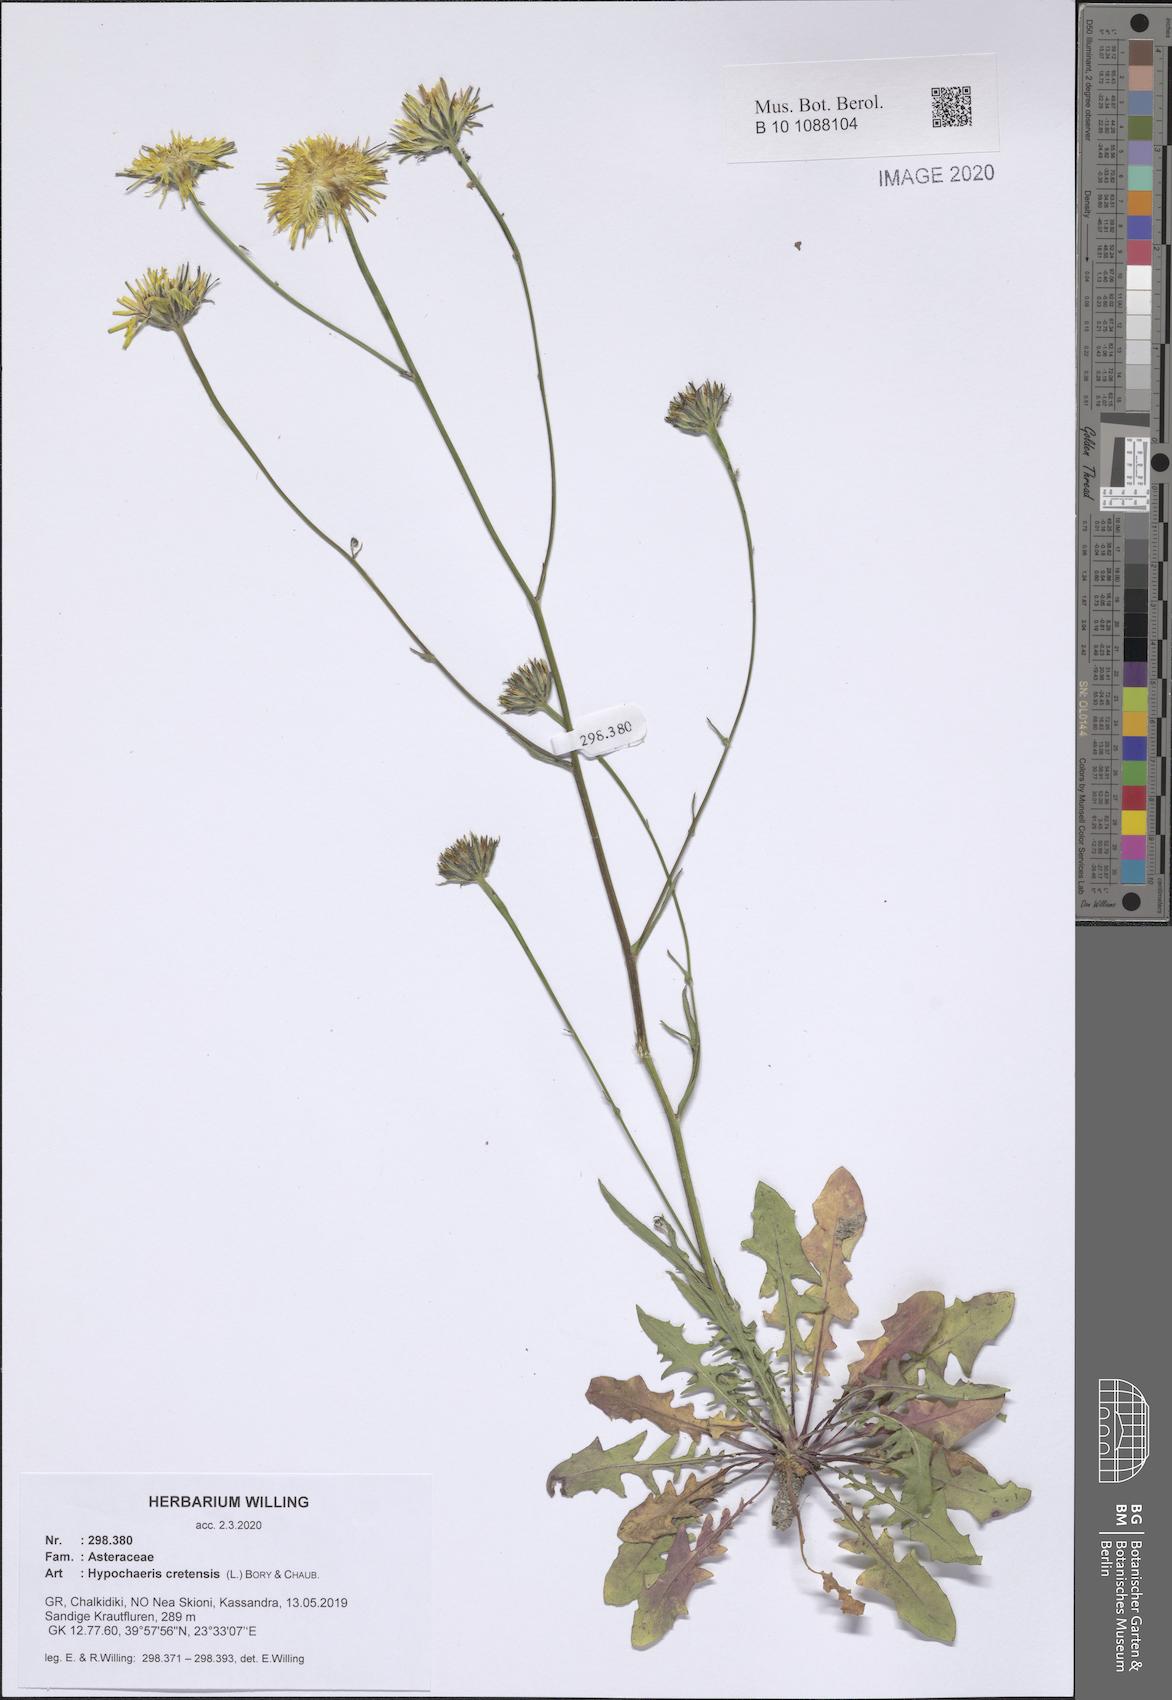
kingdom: Plantae
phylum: Tracheophyta
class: Magnoliopsida
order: Asterales
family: Asteraceae
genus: Hypochaeris
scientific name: Hypochaeris cretensis
